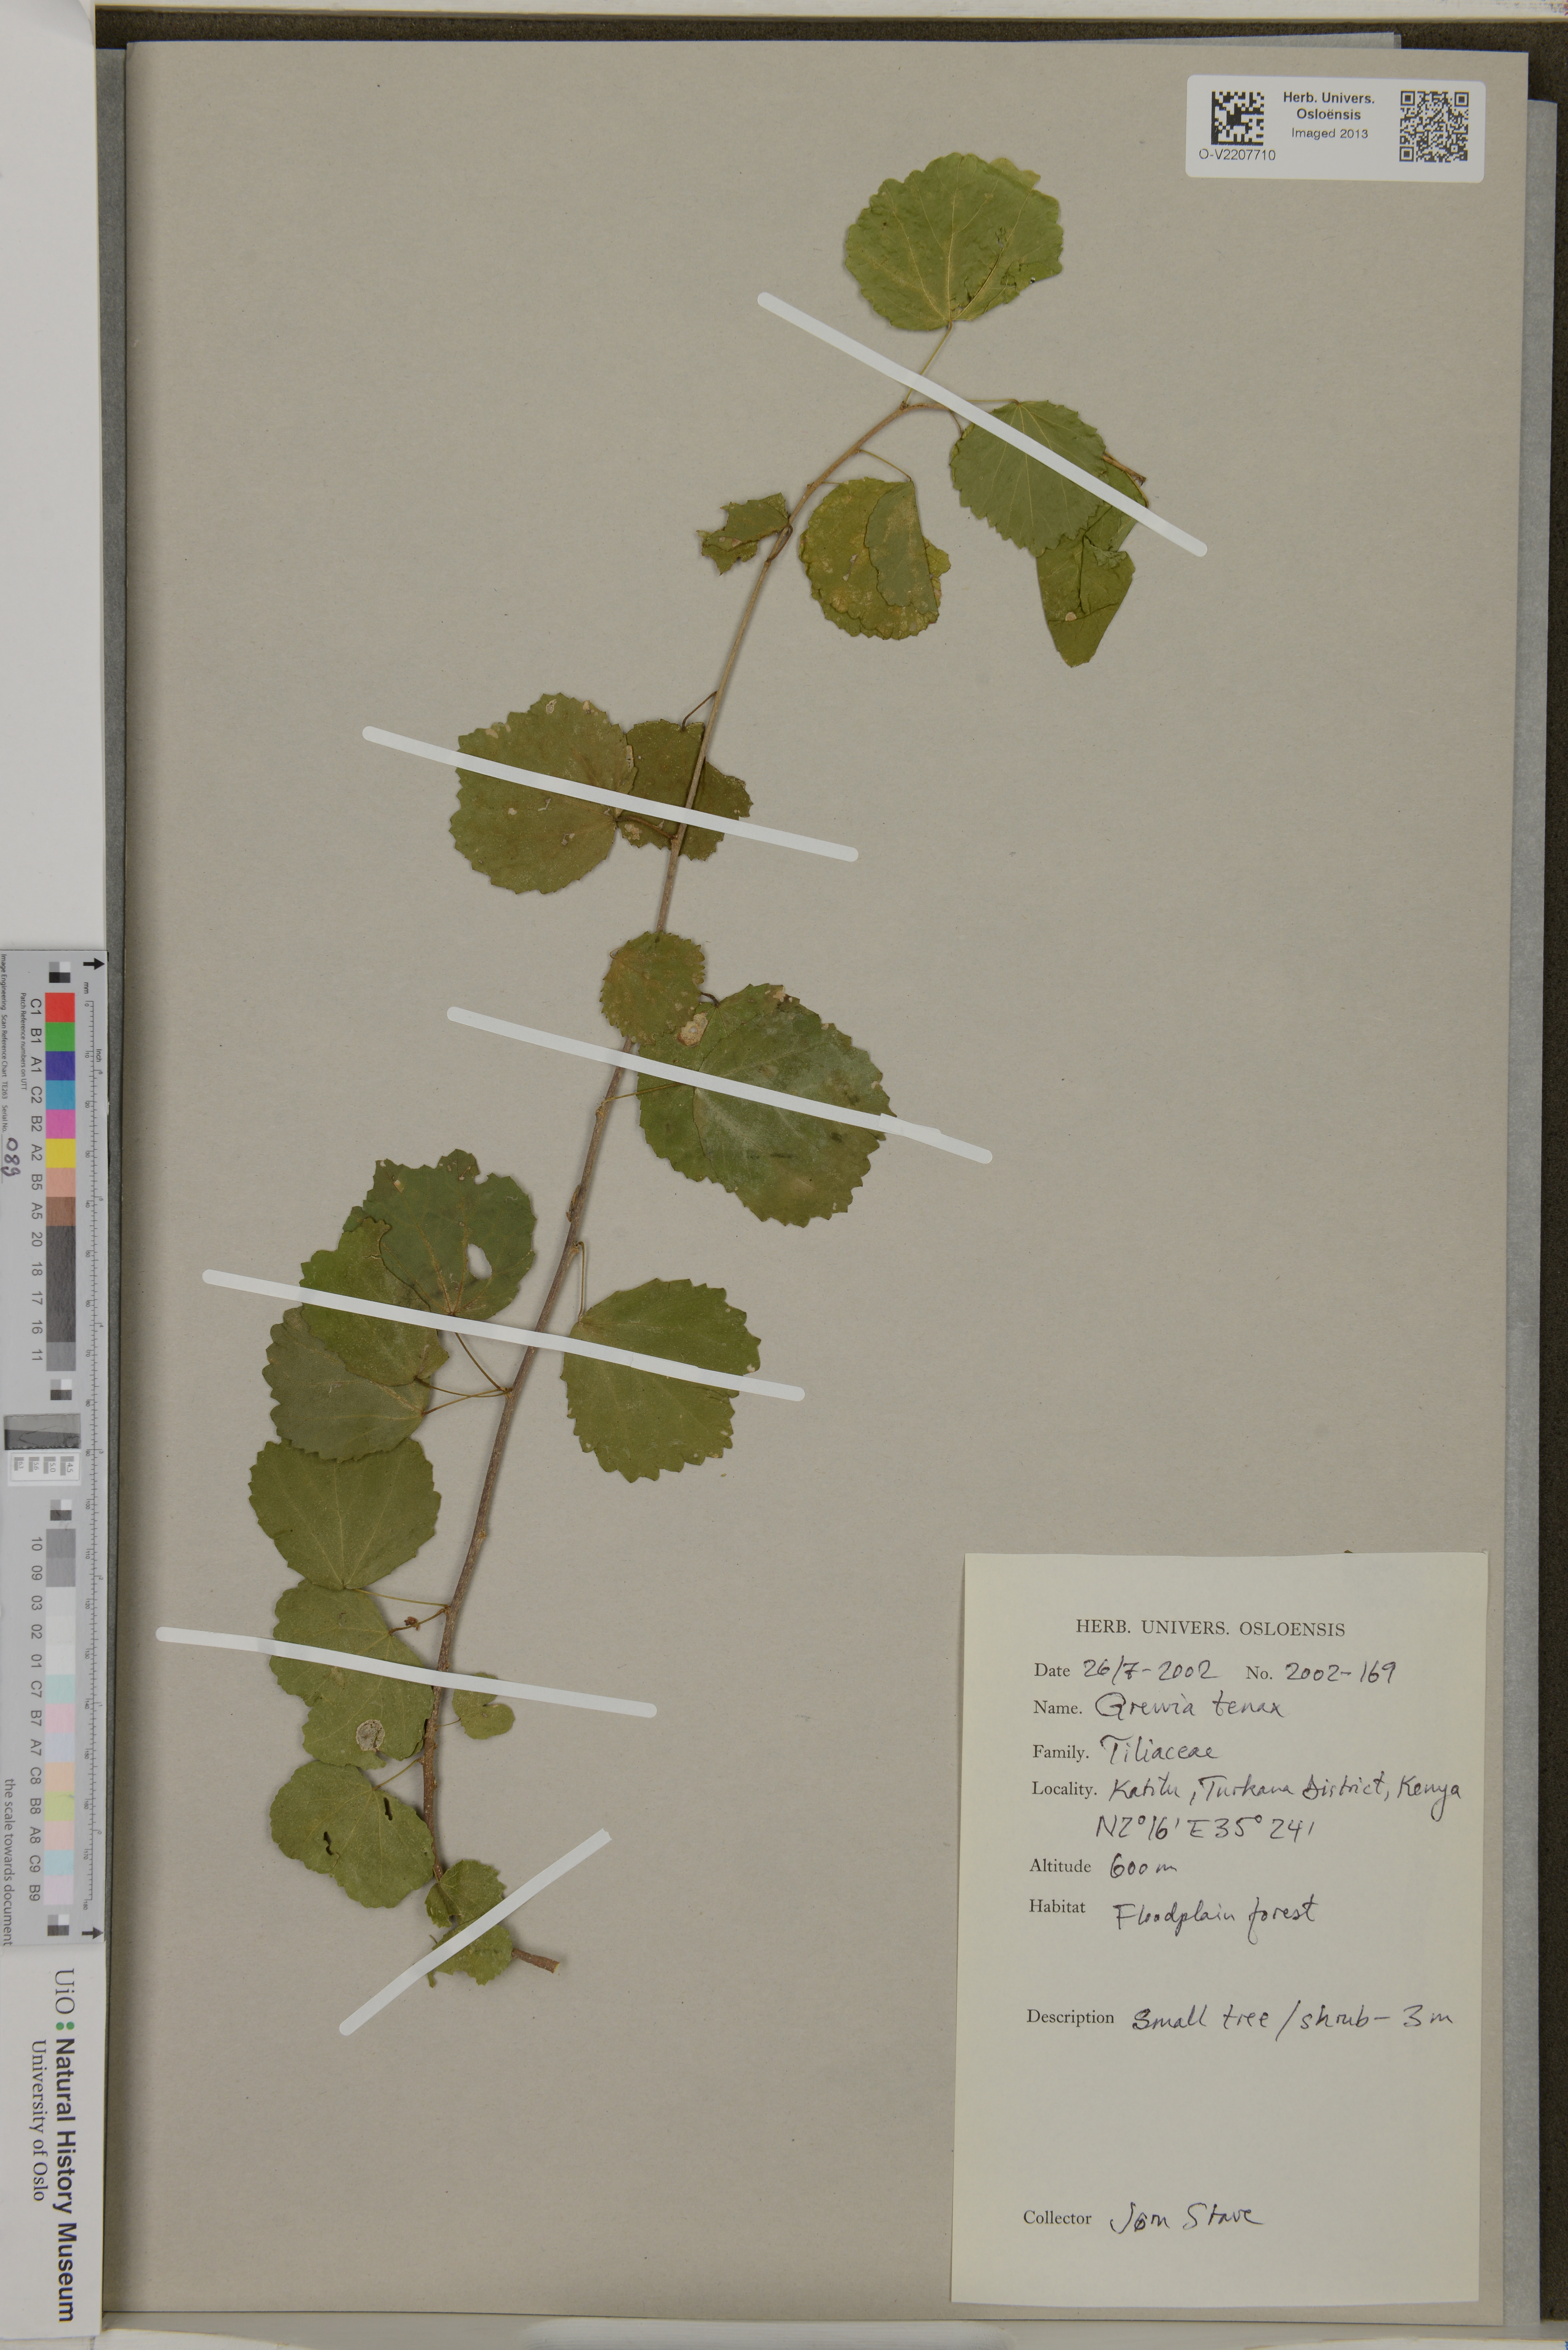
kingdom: Plantae
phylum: Tracheophyta
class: Magnoliopsida
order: Malvales
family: Malvaceae
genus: Grewia
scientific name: Grewia tenax
